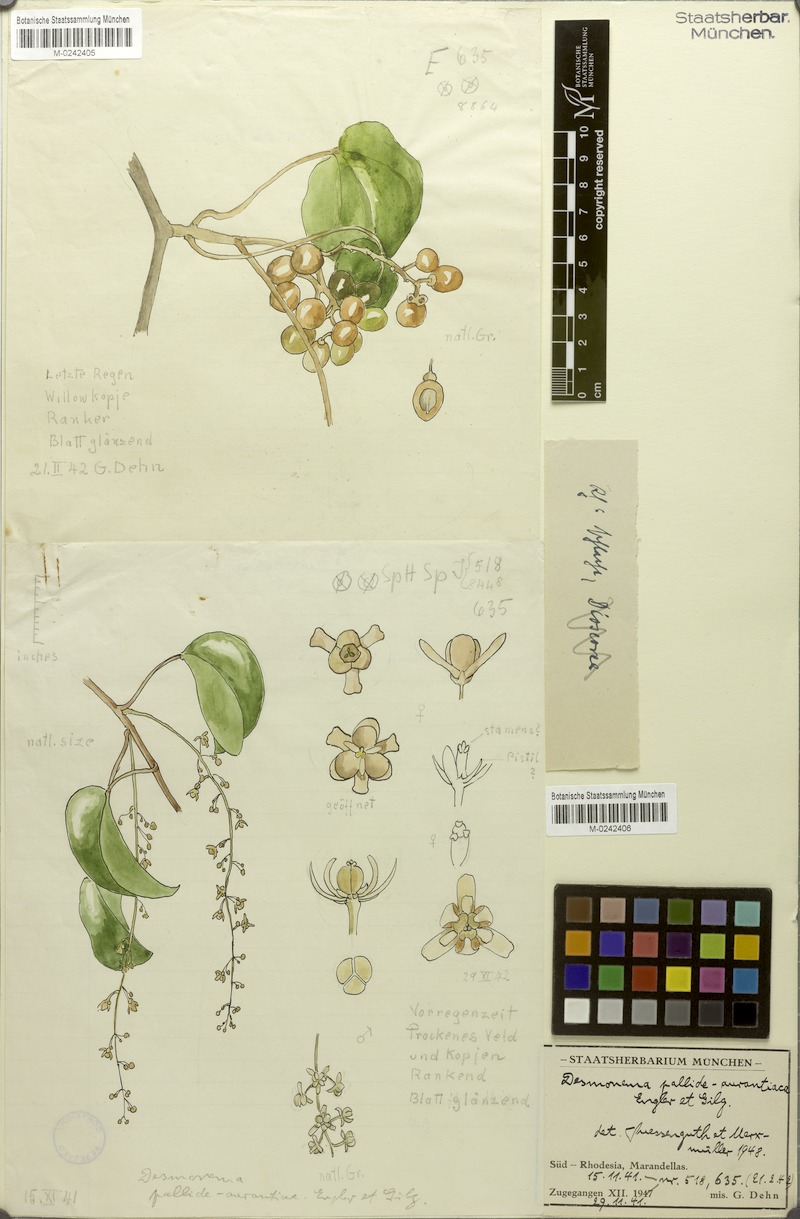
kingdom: Plantae
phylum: Tracheophyta
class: Magnoliopsida
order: Ranunculales
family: Menispermaceae
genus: Tinospora
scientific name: Tinospora caffra
